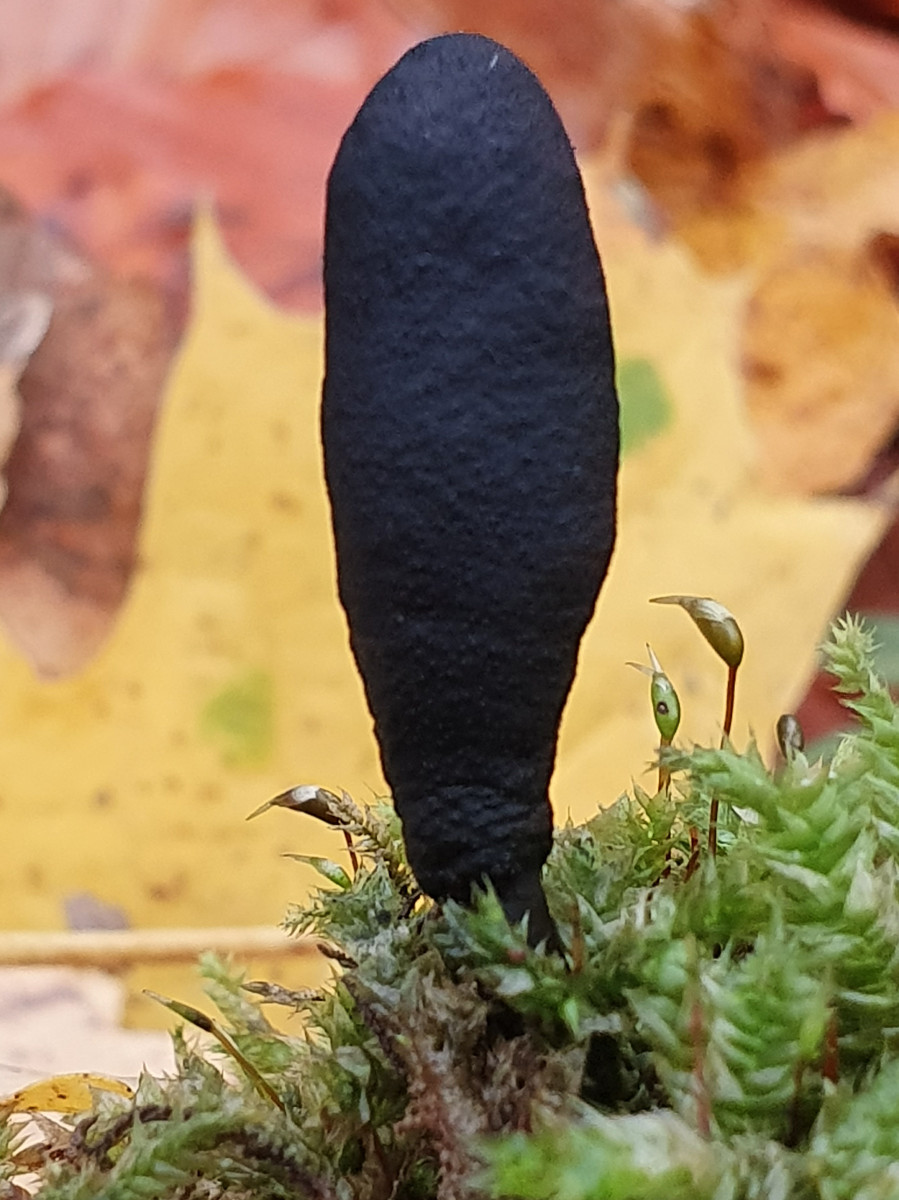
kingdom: Fungi
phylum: Ascomycota
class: Sordariomycetes
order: Xylariales
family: Xylariaceae
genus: Xylaria
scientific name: Xylaria longipes
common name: slank stødsvamp
